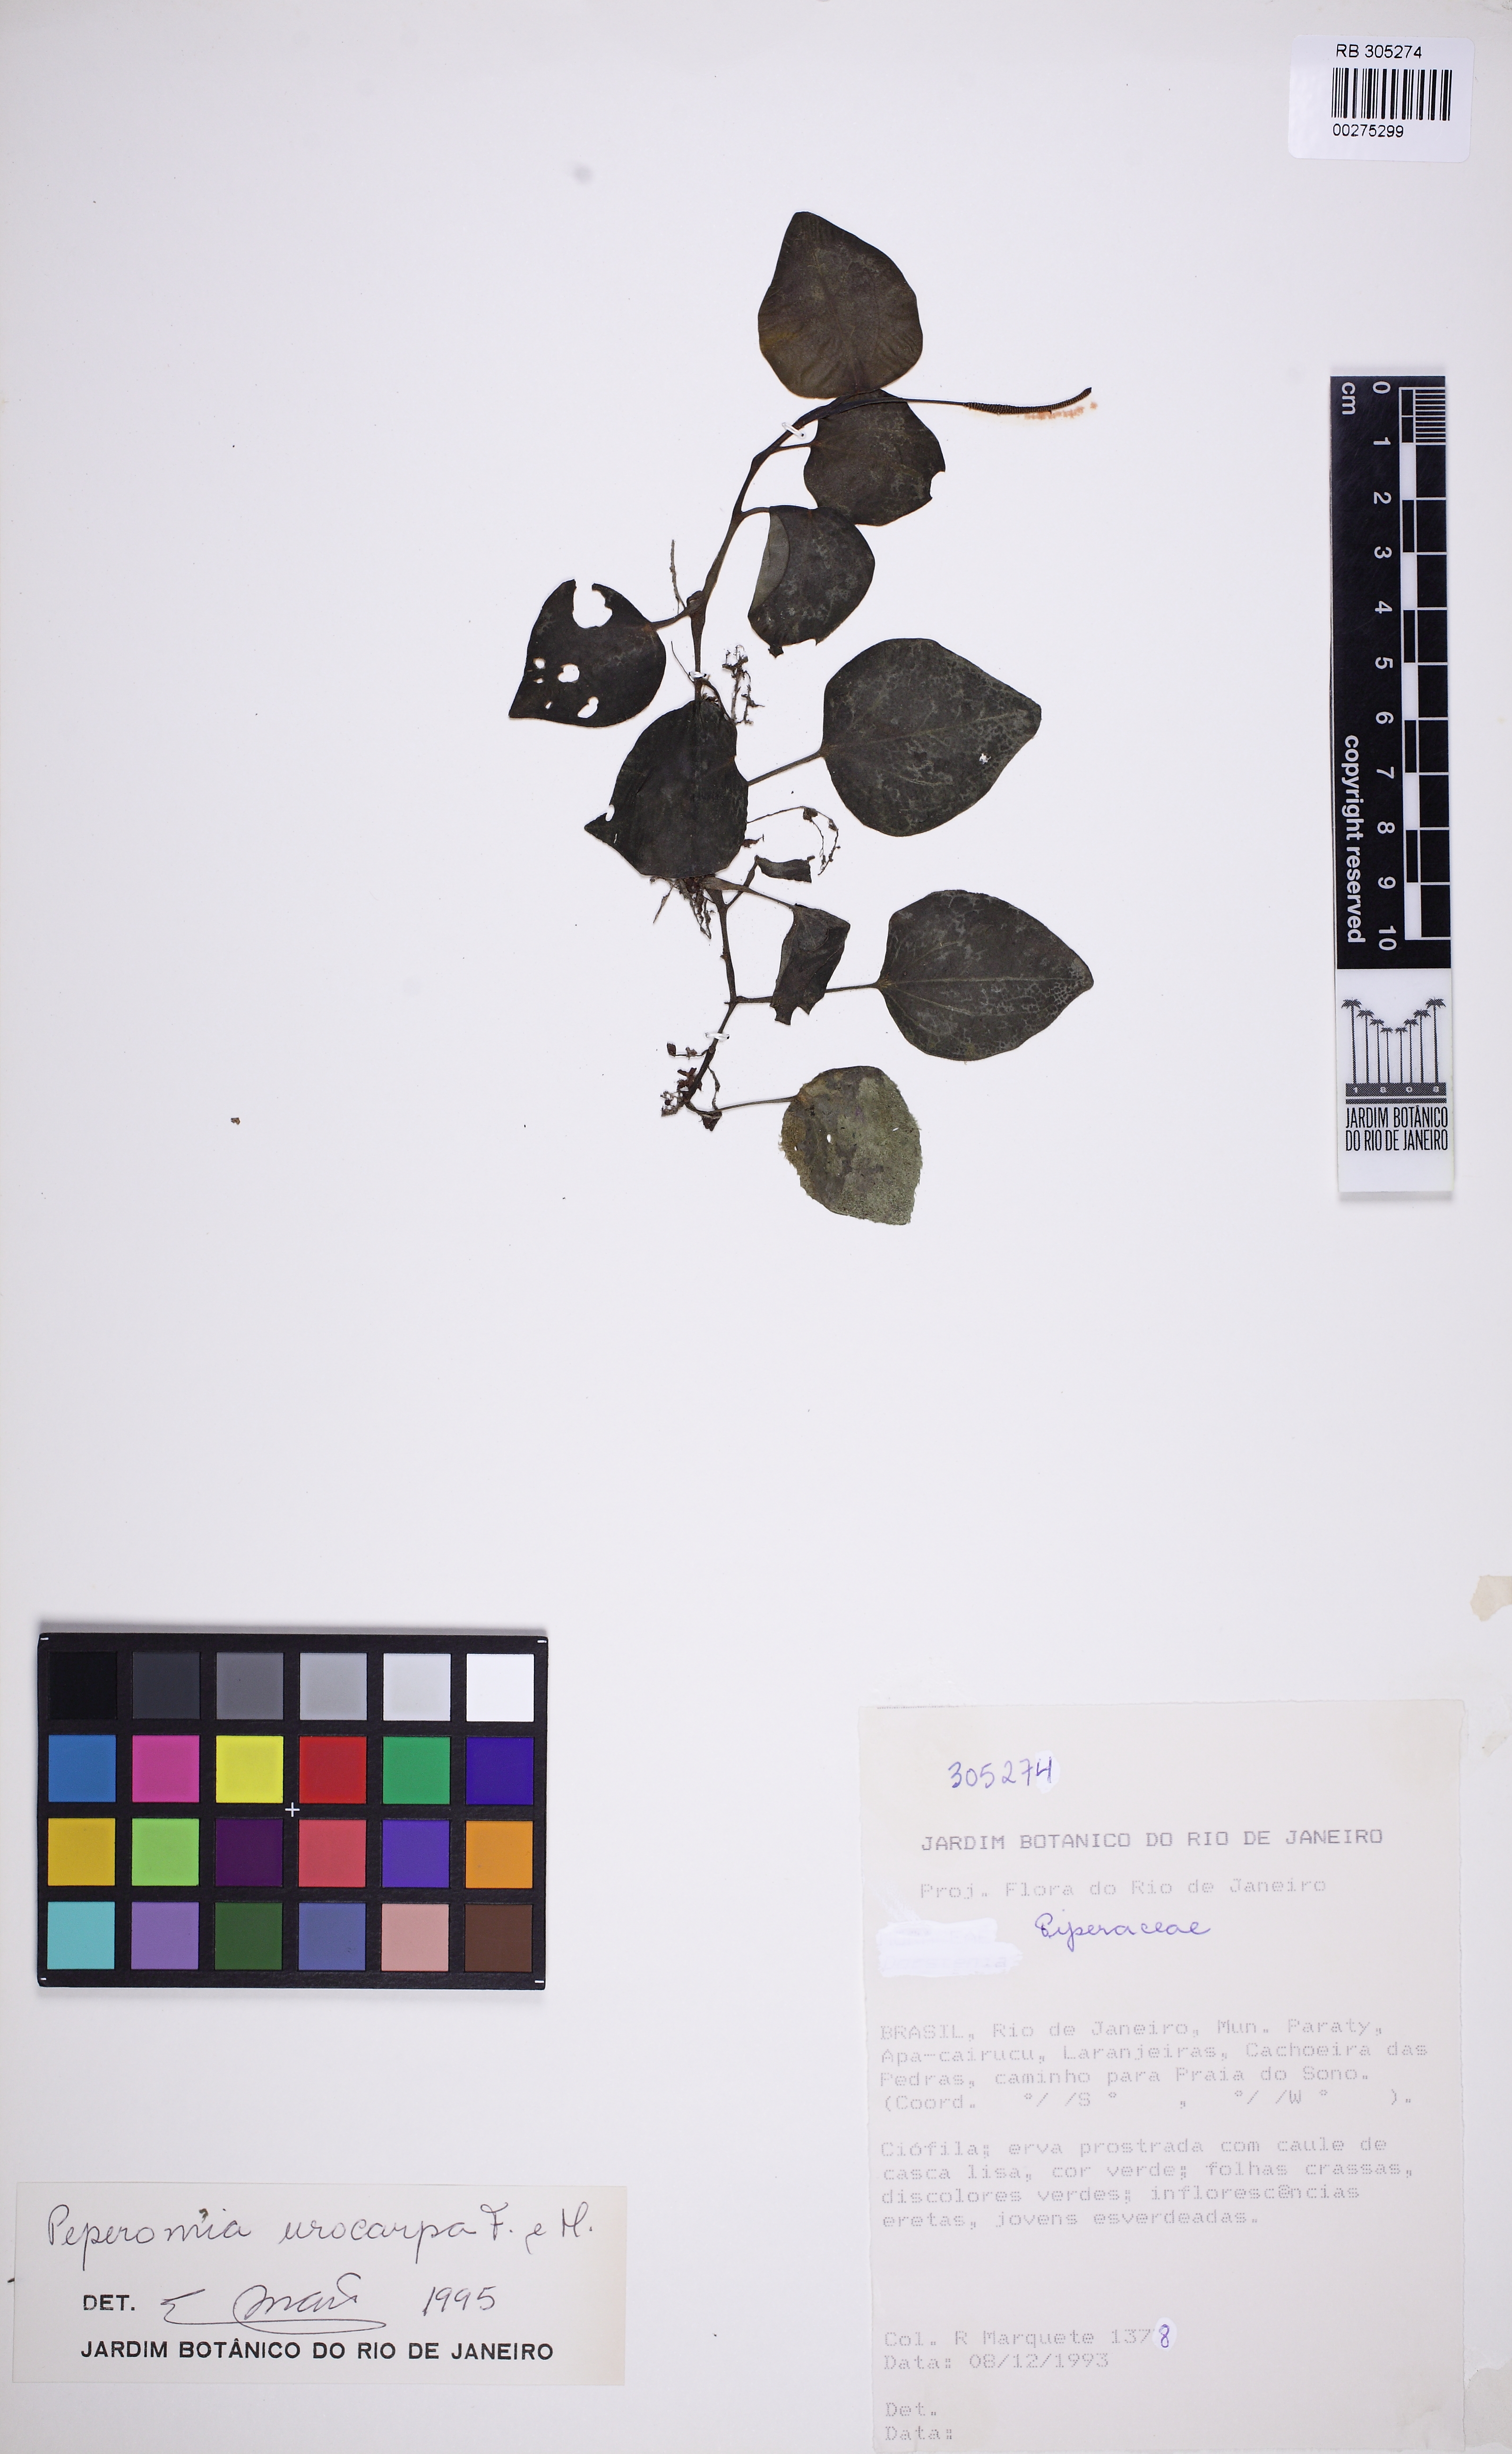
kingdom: Plantae
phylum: Tracheophyta
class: Magnoliopsida
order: Piperales
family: Piperaceae
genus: Peperomia
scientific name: Peperomia urocarpa
